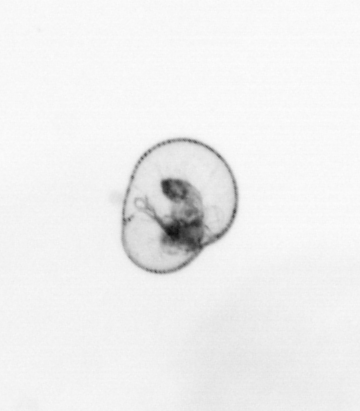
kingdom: Chromista
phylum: Myzozoa
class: Dinophyceae
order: Noctilucales
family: Noctilucaceae
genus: Noctiluca
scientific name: Noctiluca scintillans
